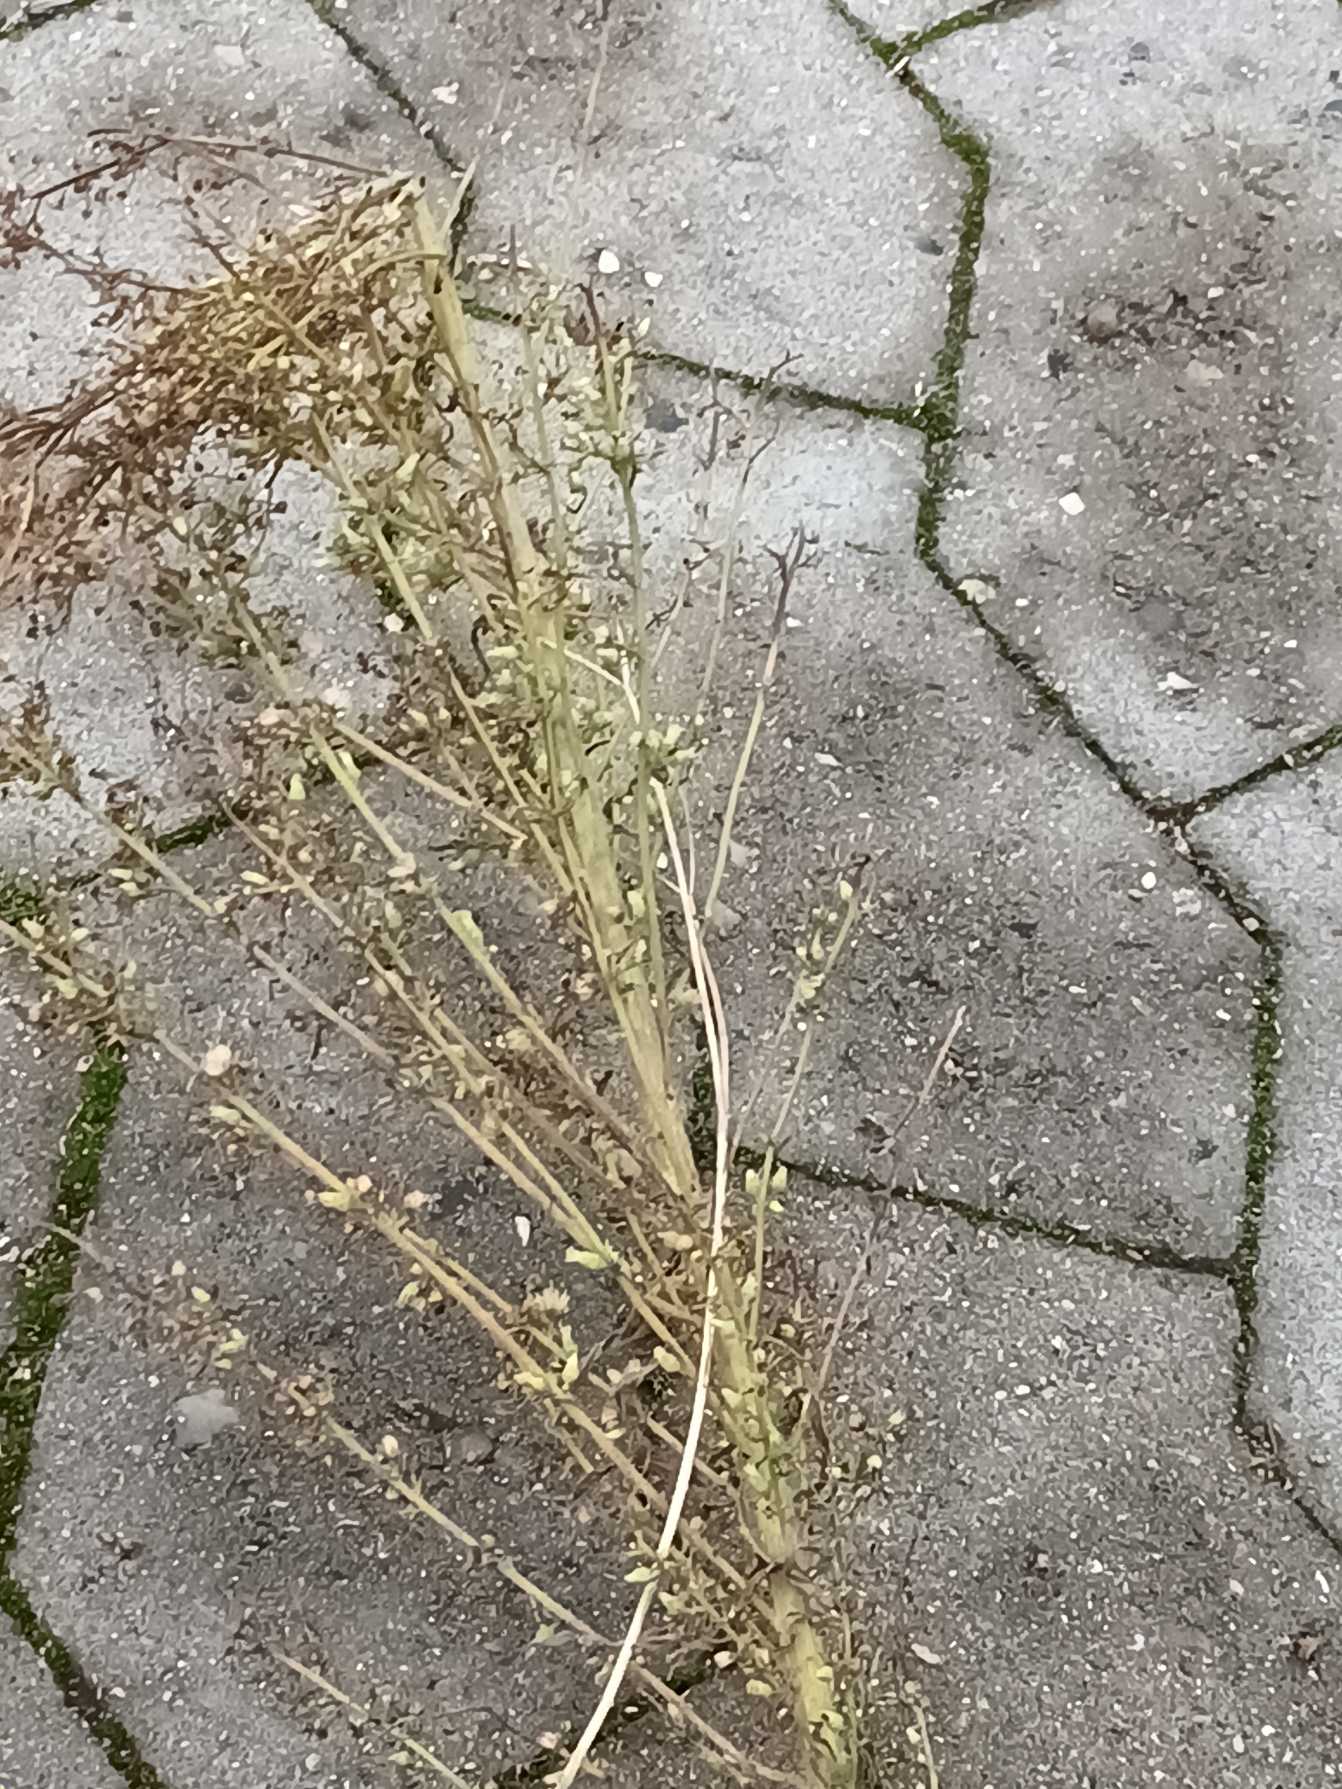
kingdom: Plantae
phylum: Tracheophyta
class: Magnoliopsida
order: Asterales
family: Asteraceae
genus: Erigeron
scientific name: Erigeron canadensis
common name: Kanadisk bakkestjerne
